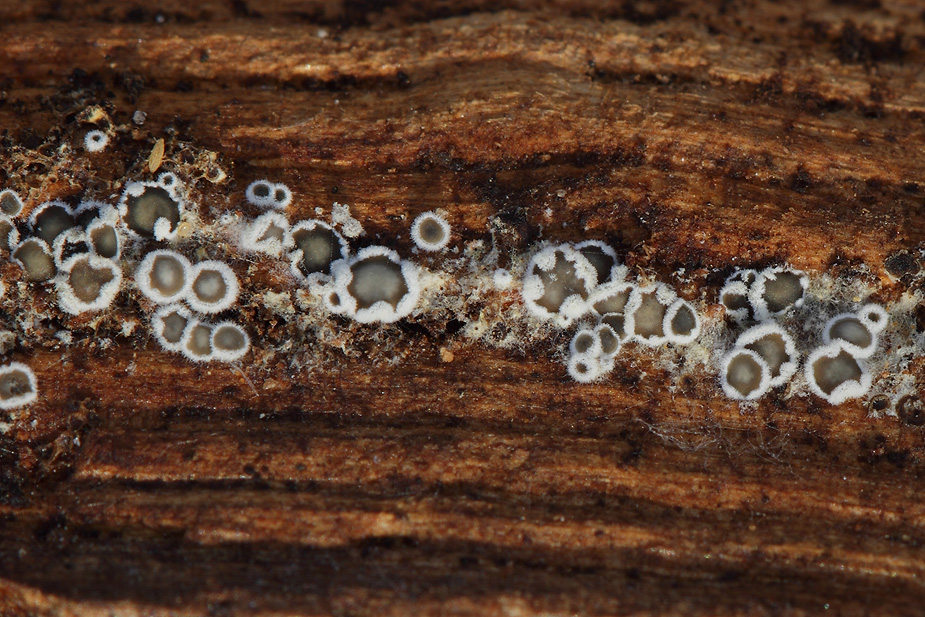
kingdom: Fungi
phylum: Ascomycota
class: Leotiomycetes
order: Helotiales
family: Arachnopezizaceae
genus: Eriopezia
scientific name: Eriopezia caesia
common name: ege-spindskive
